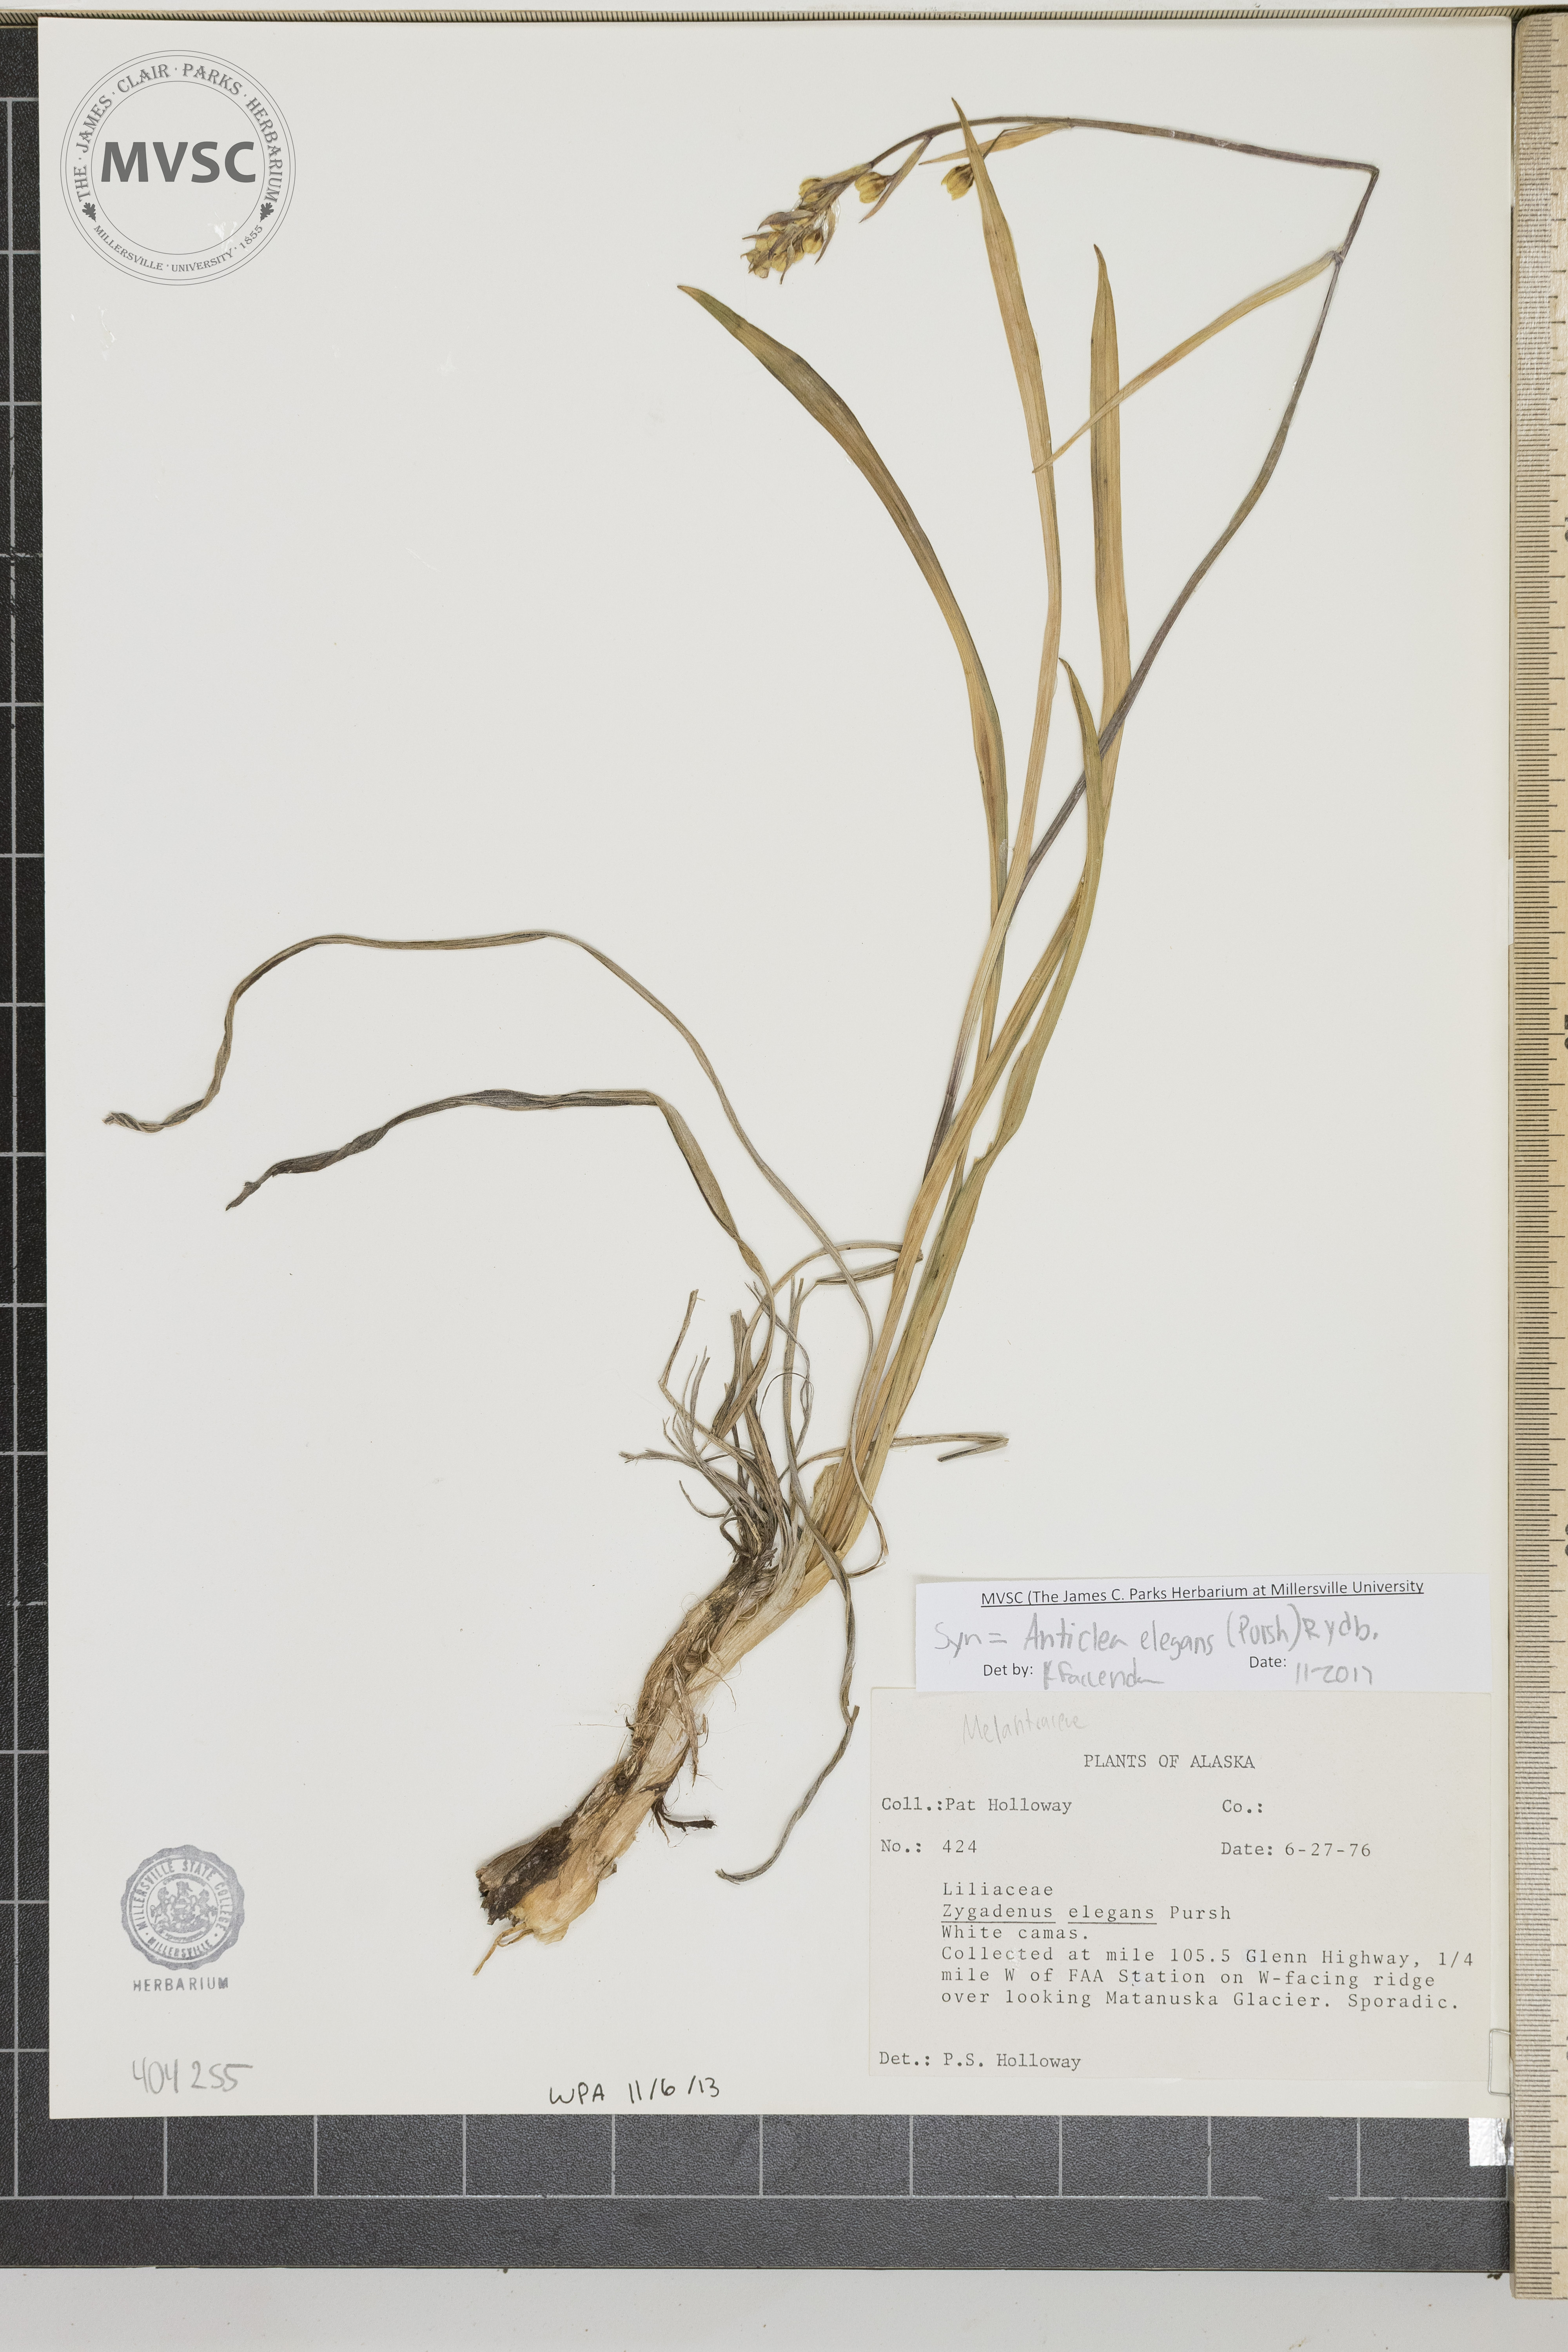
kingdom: Plantae
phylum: Tracheophyta
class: Liliopsida
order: Liliales
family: Melanthiaceae
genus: Anticlea
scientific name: Anticlea elegans
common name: White camas
